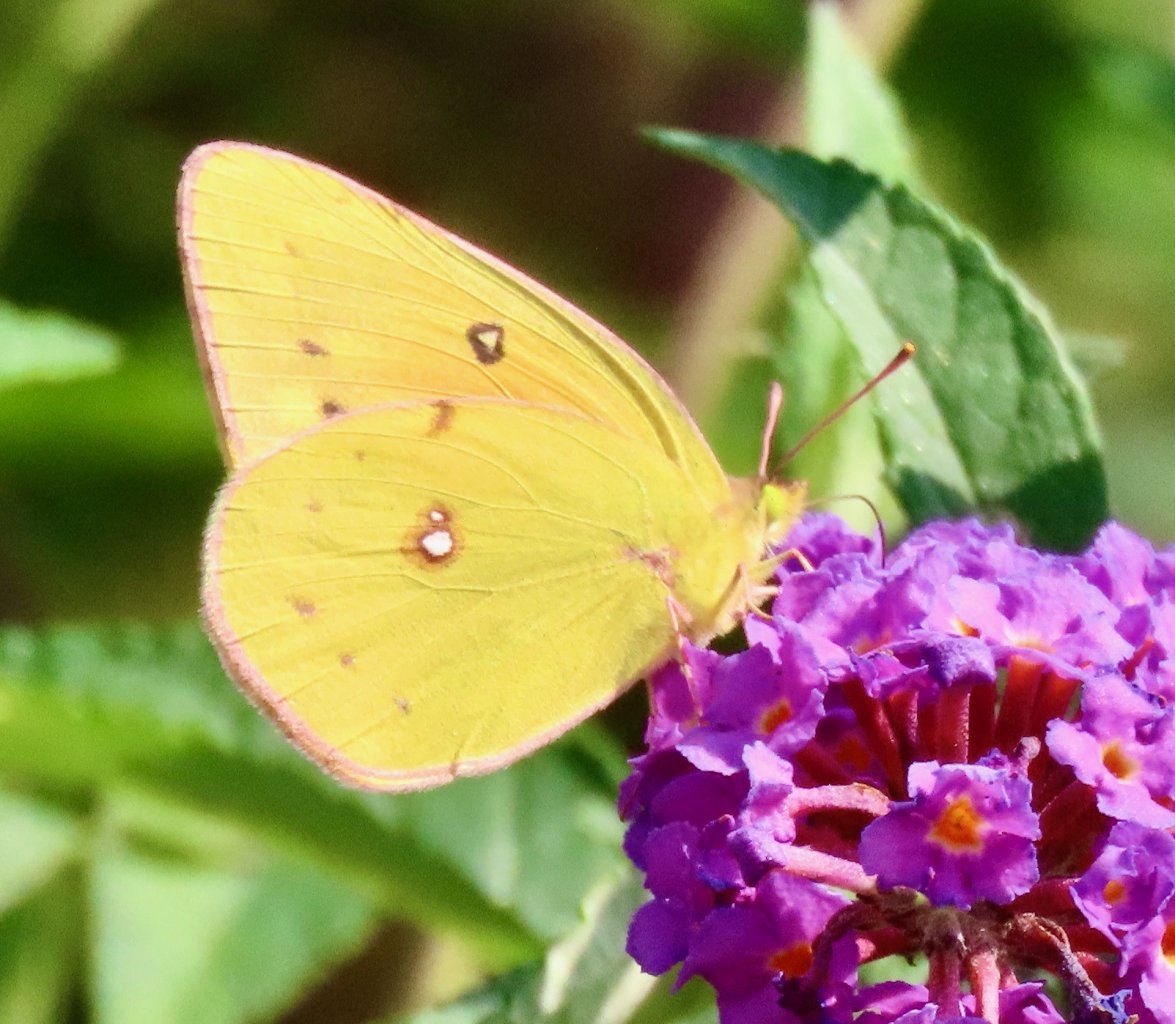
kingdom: Animalia
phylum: Arthropoda
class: Insecta
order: Lepidoptera
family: Pieridae
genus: Colias
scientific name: Colias eurytheme
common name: Orange Sulphur
